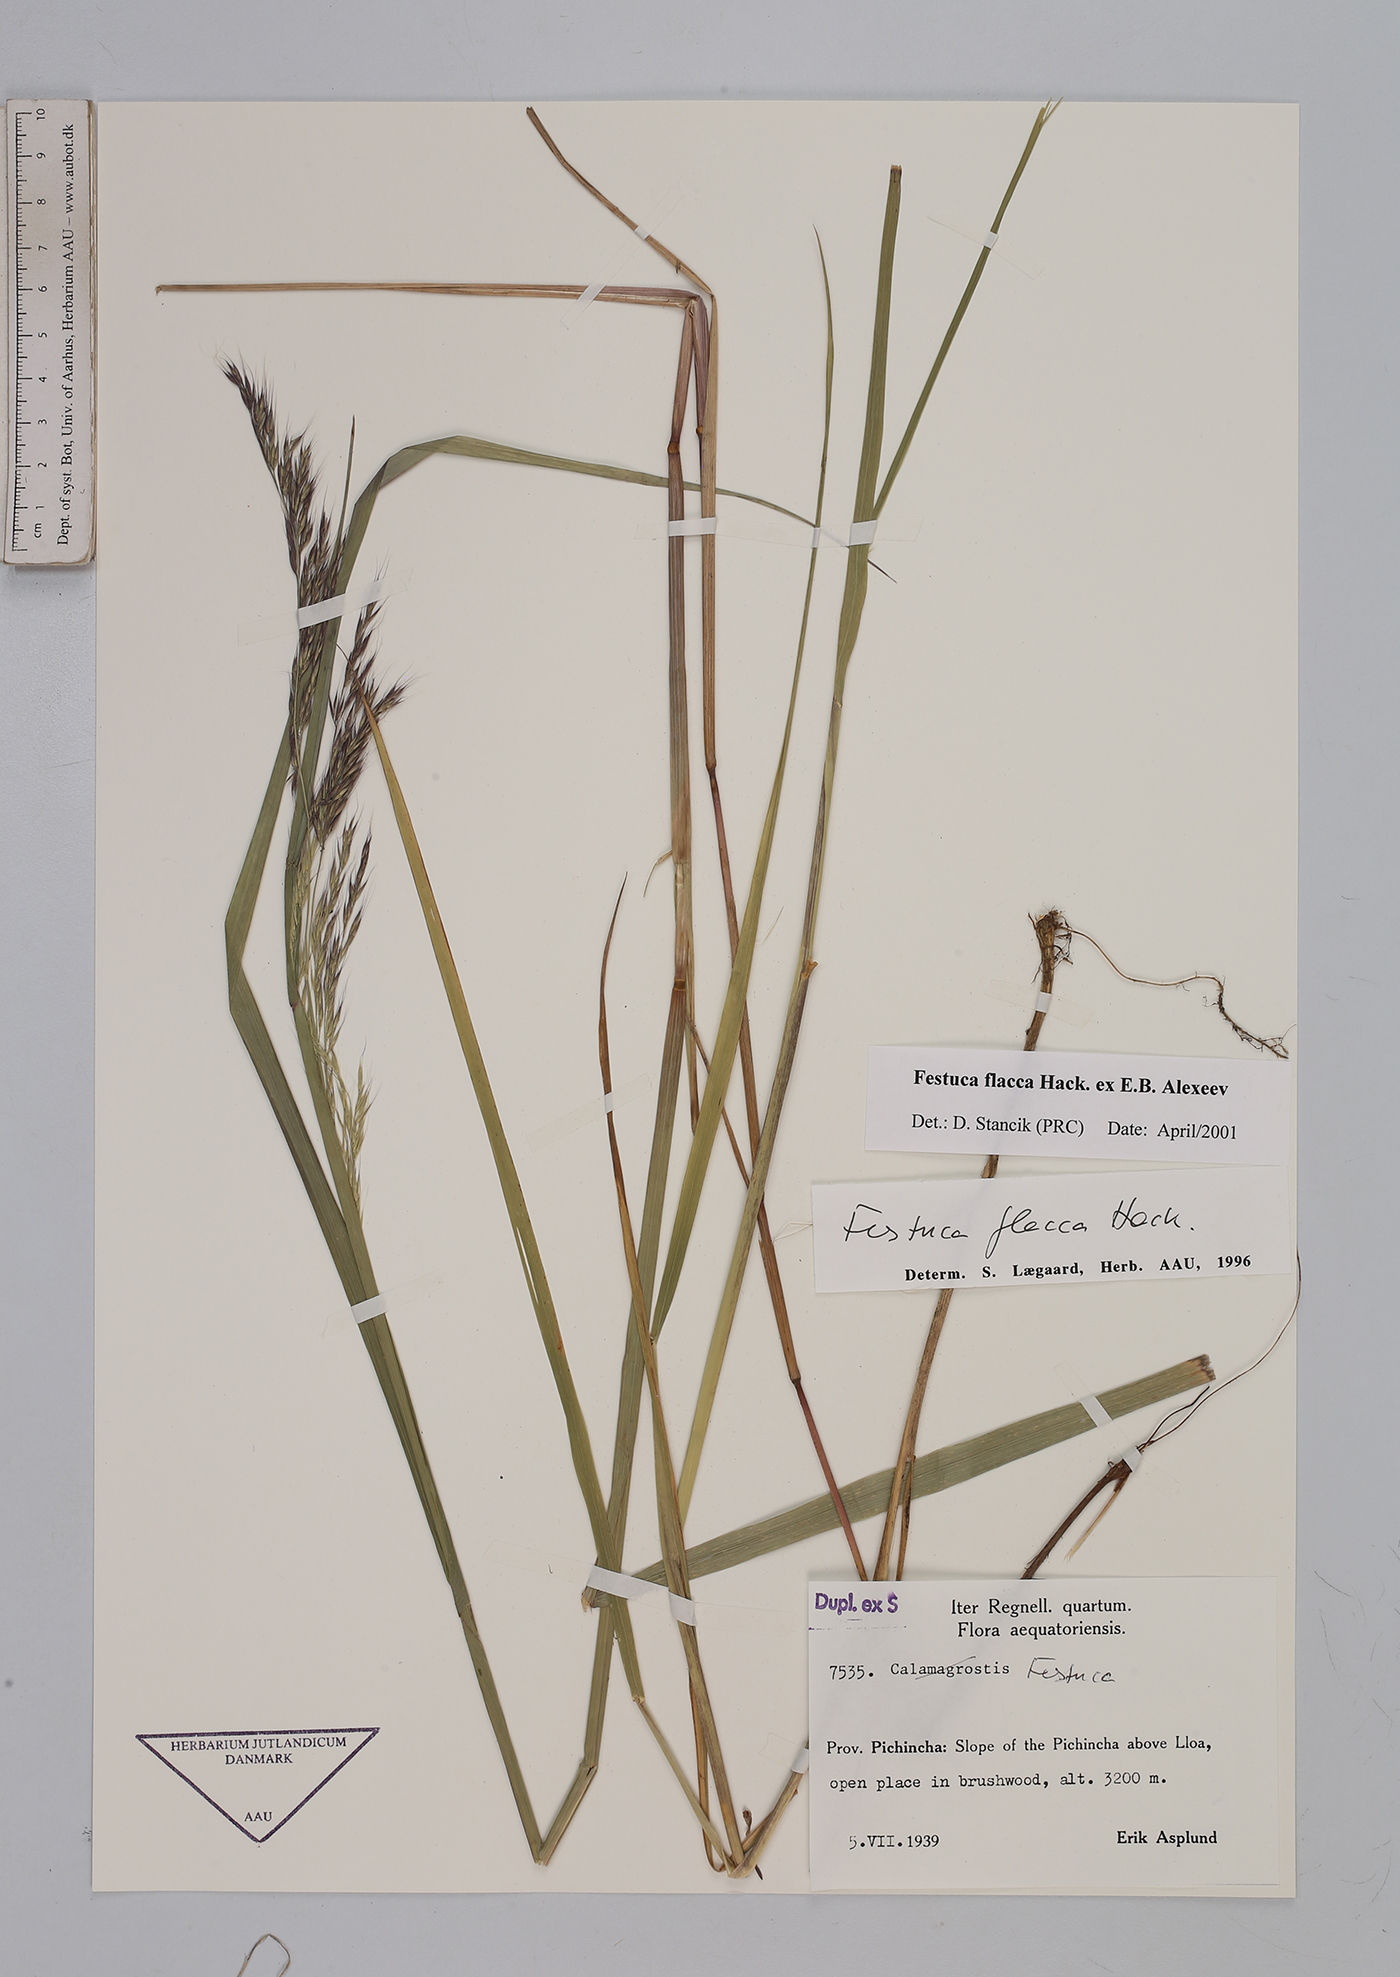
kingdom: Plantae
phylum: Tracheophyta
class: Liliopsida
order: Poales
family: Poaceae
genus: Festuca
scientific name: Festuca flacca
